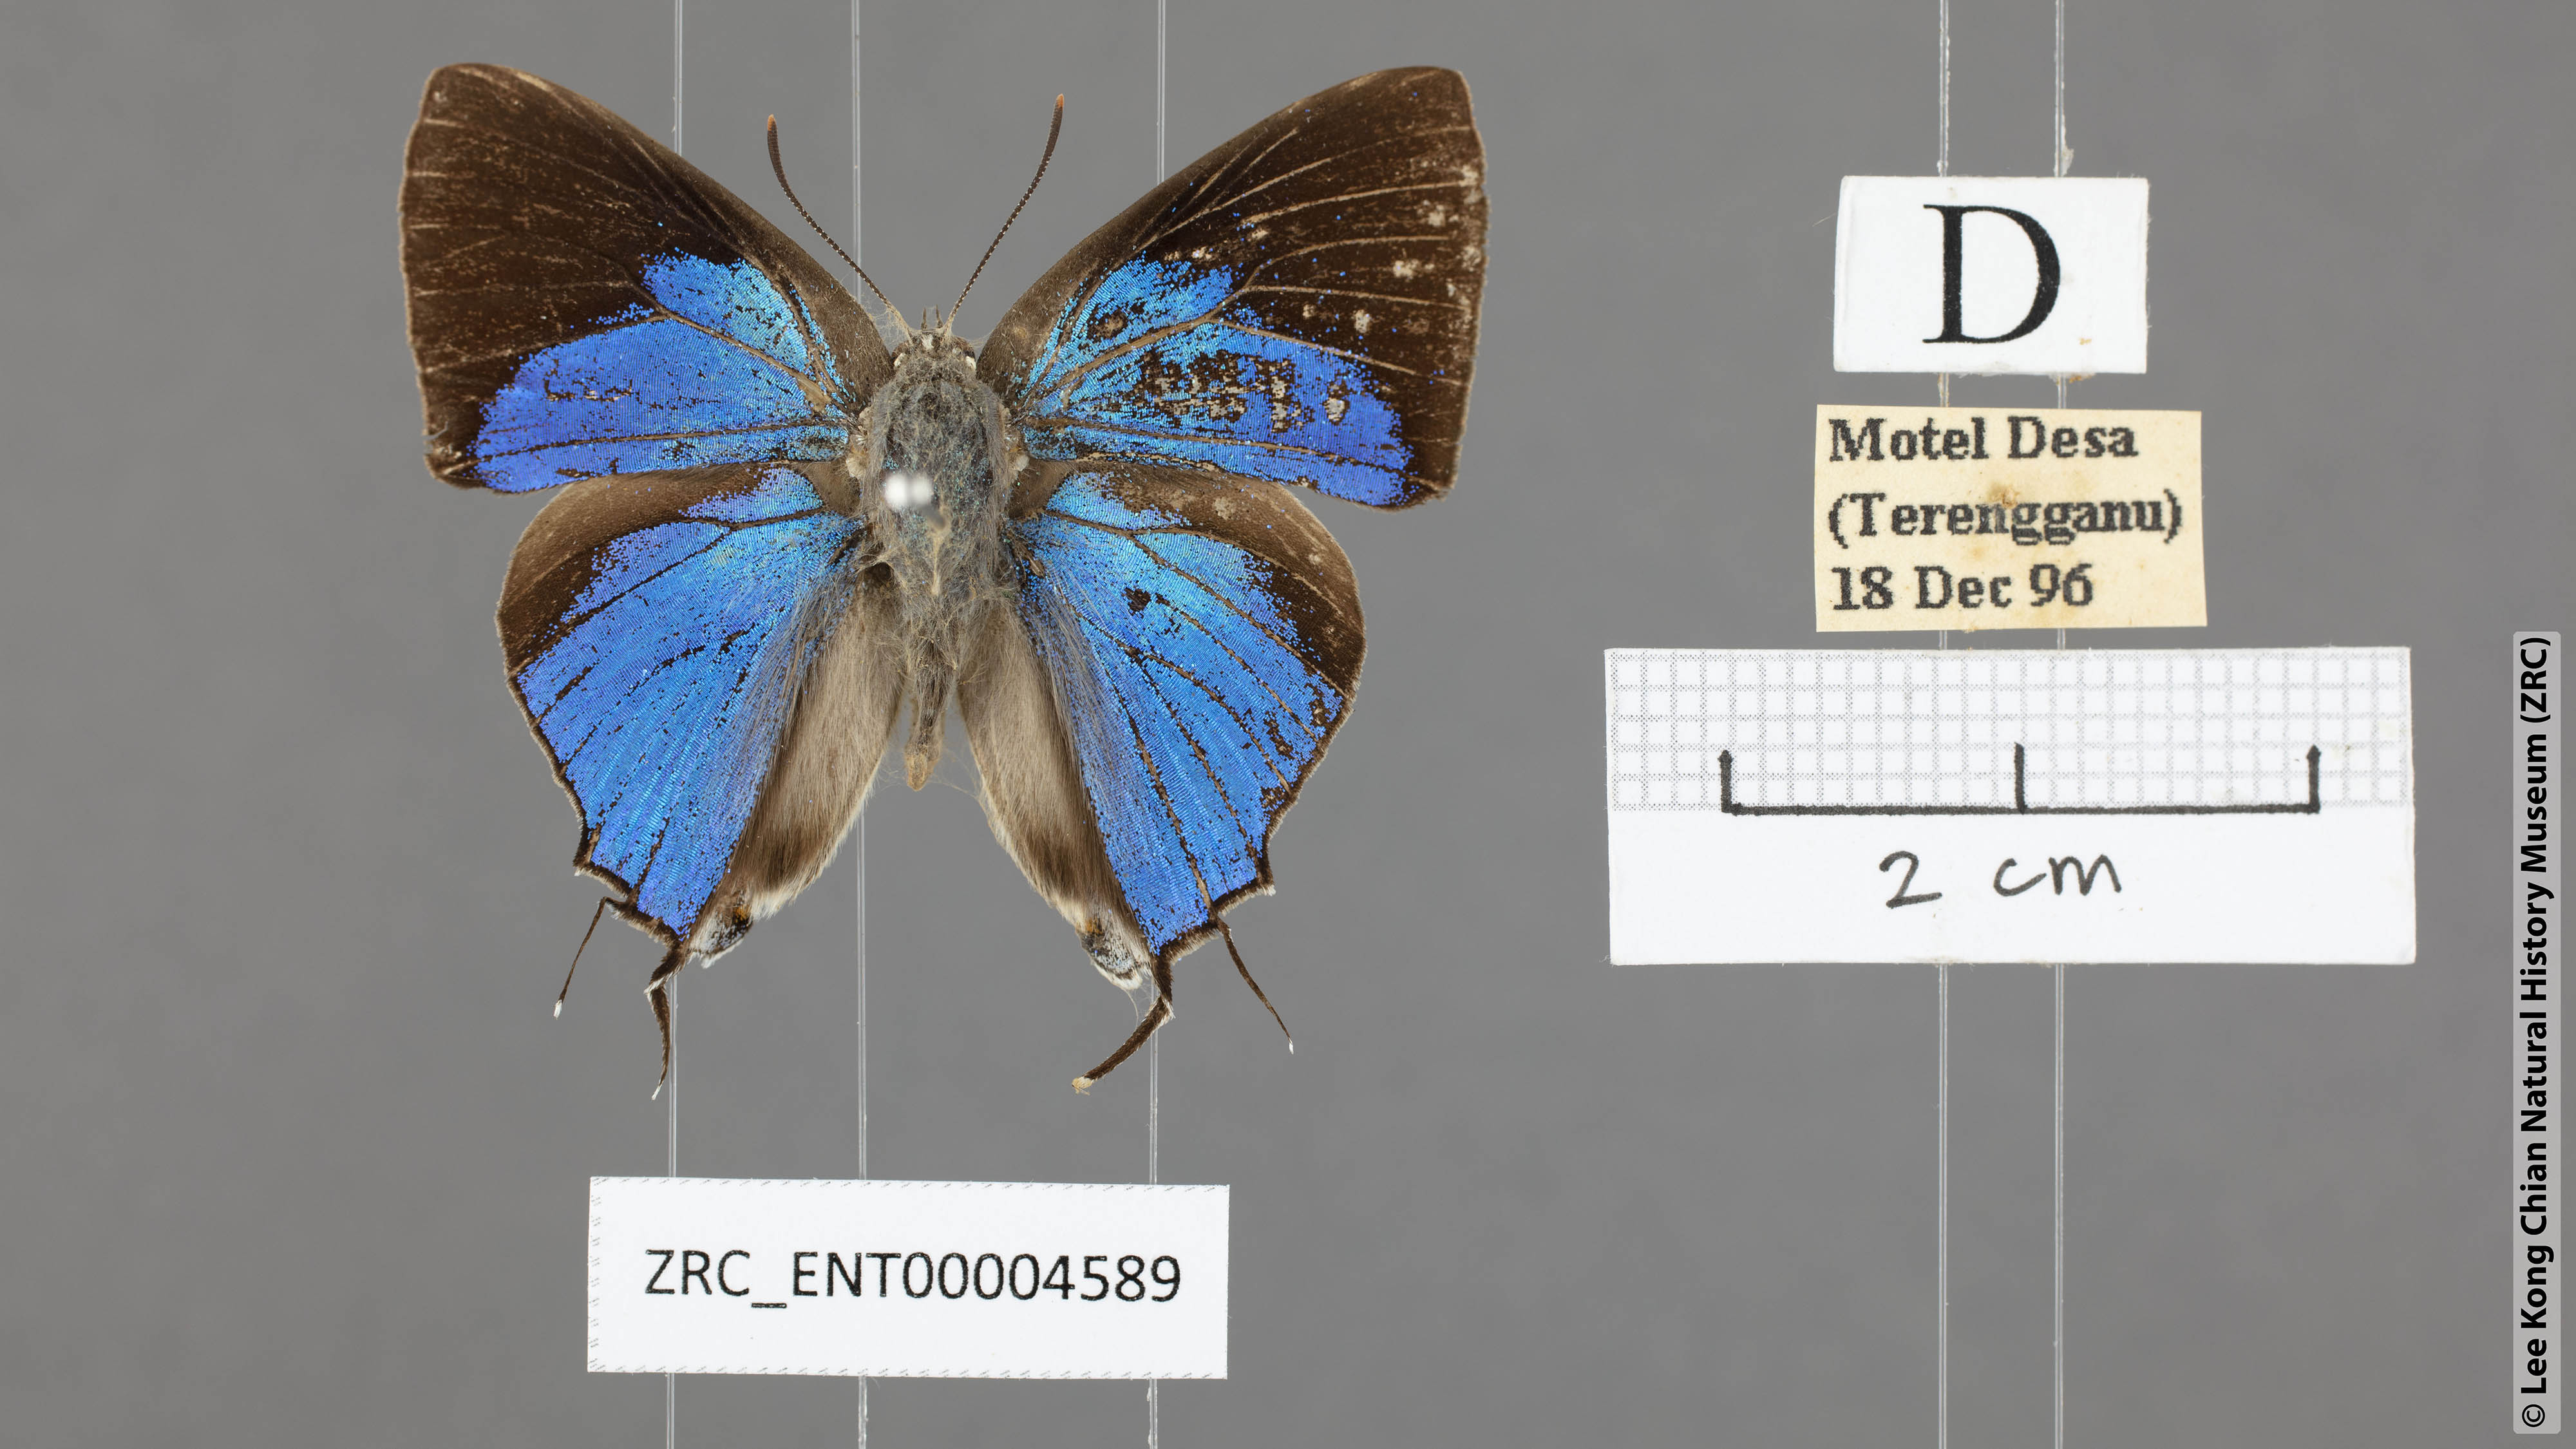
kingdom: Animalia
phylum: Arthropoda
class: Insecta
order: Lepidoptera
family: Lycaenidae
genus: Tajuria
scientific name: Tajuria cippus
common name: Peacock royal
